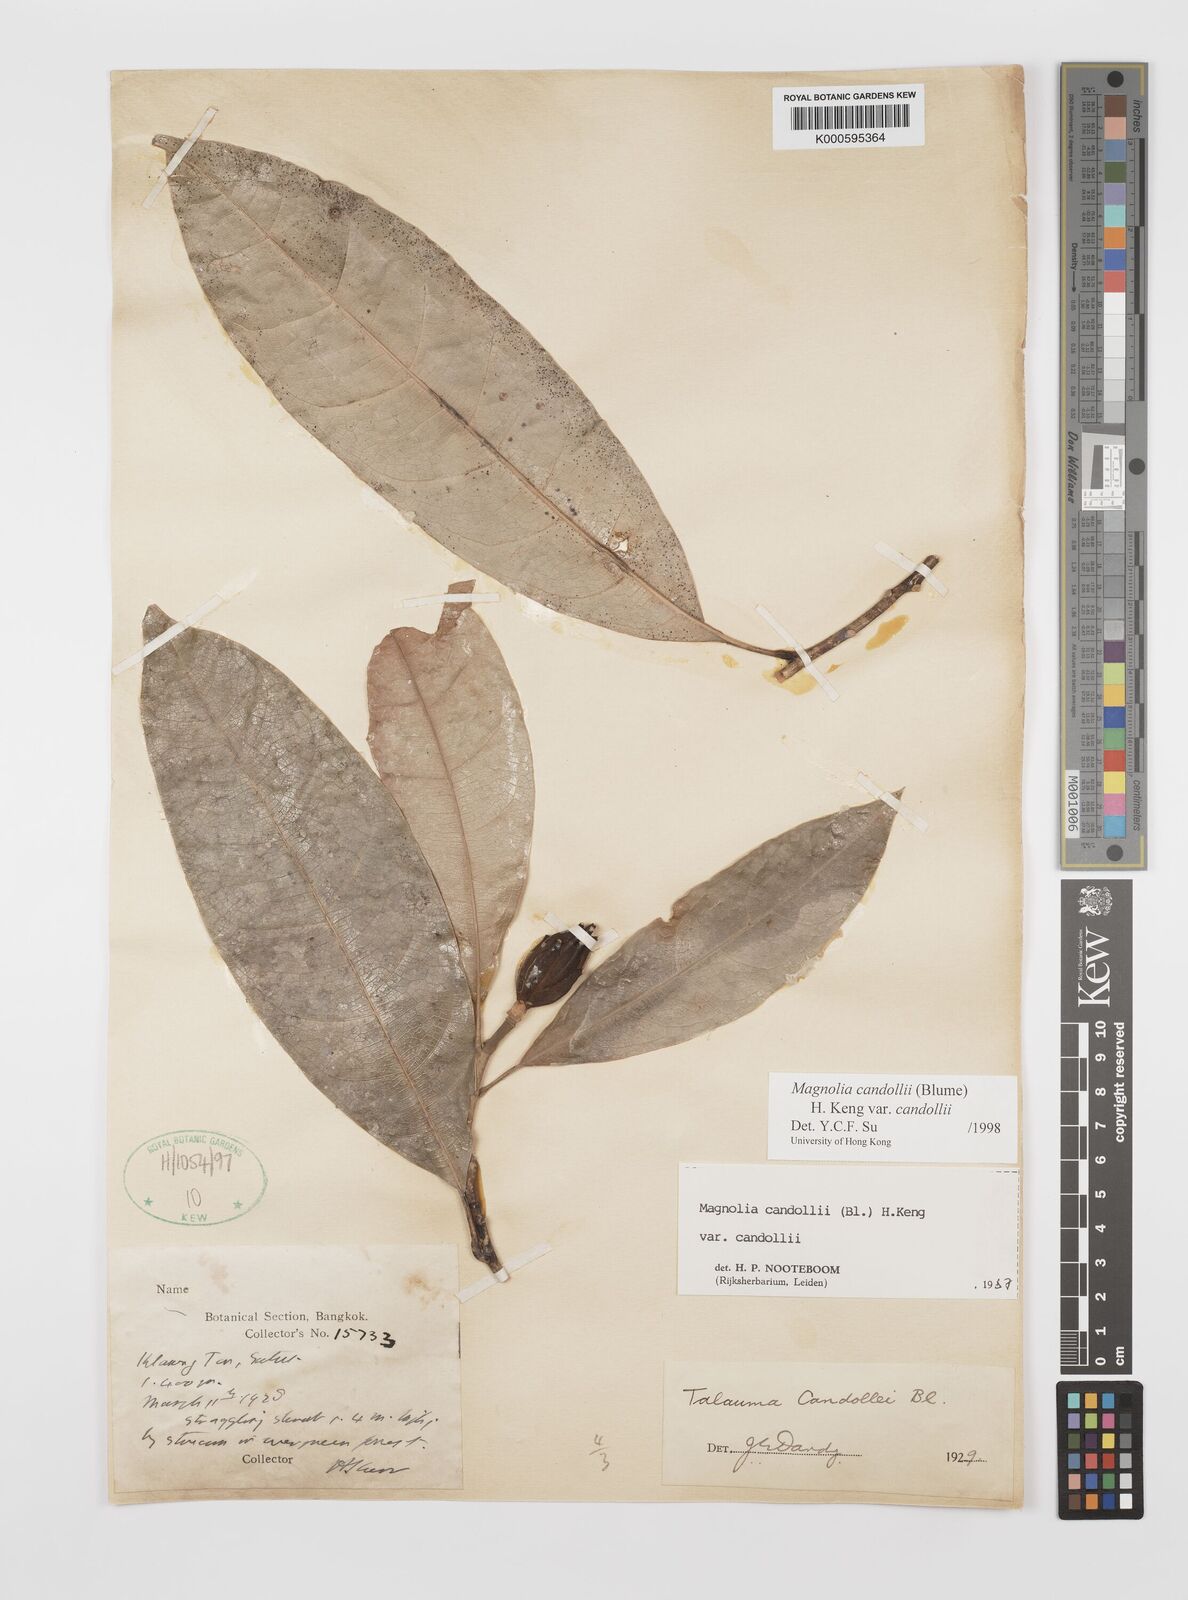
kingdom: Plantae
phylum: Tracheophyta
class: Magnoliopsida
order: Magnoliales
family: Magnoliaceae
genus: Magnolia
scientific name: Magnolia liliifera
